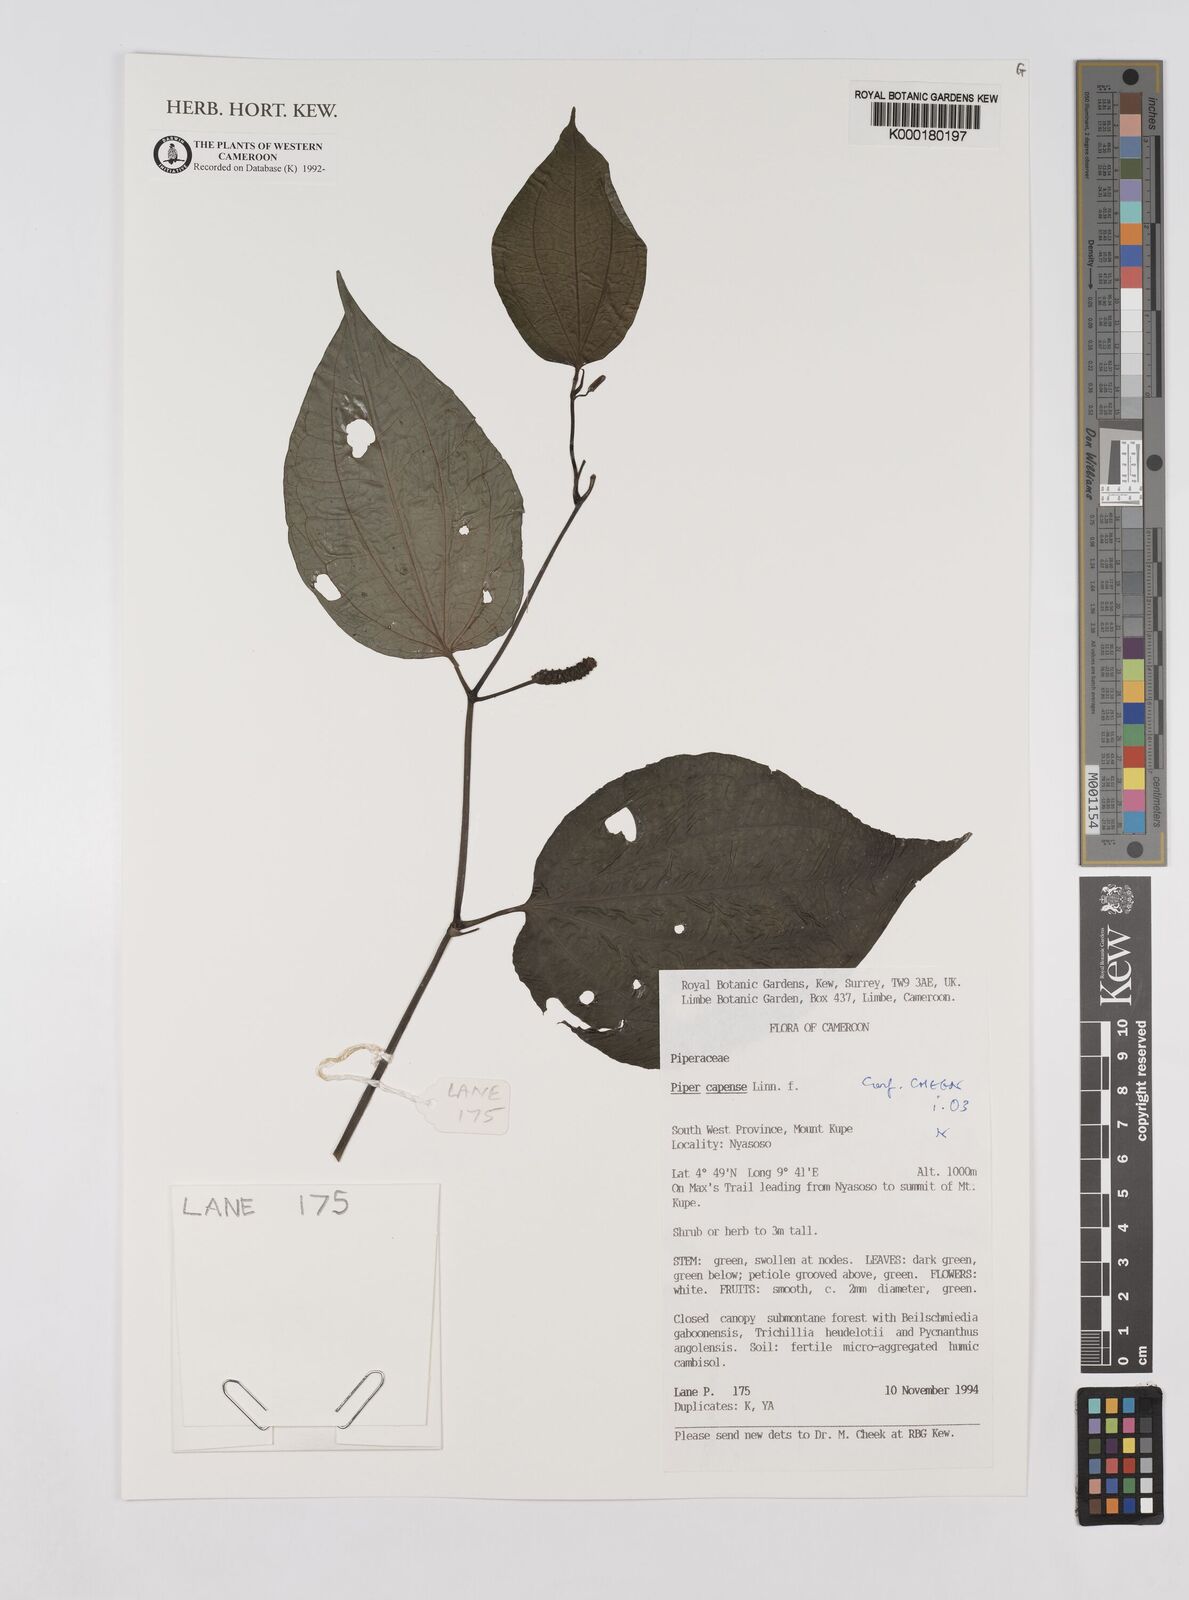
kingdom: Plantae
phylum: Tracheophyta
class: Magnoliopsida
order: Piperales
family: Piperaceae
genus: Piper
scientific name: Piper capense
